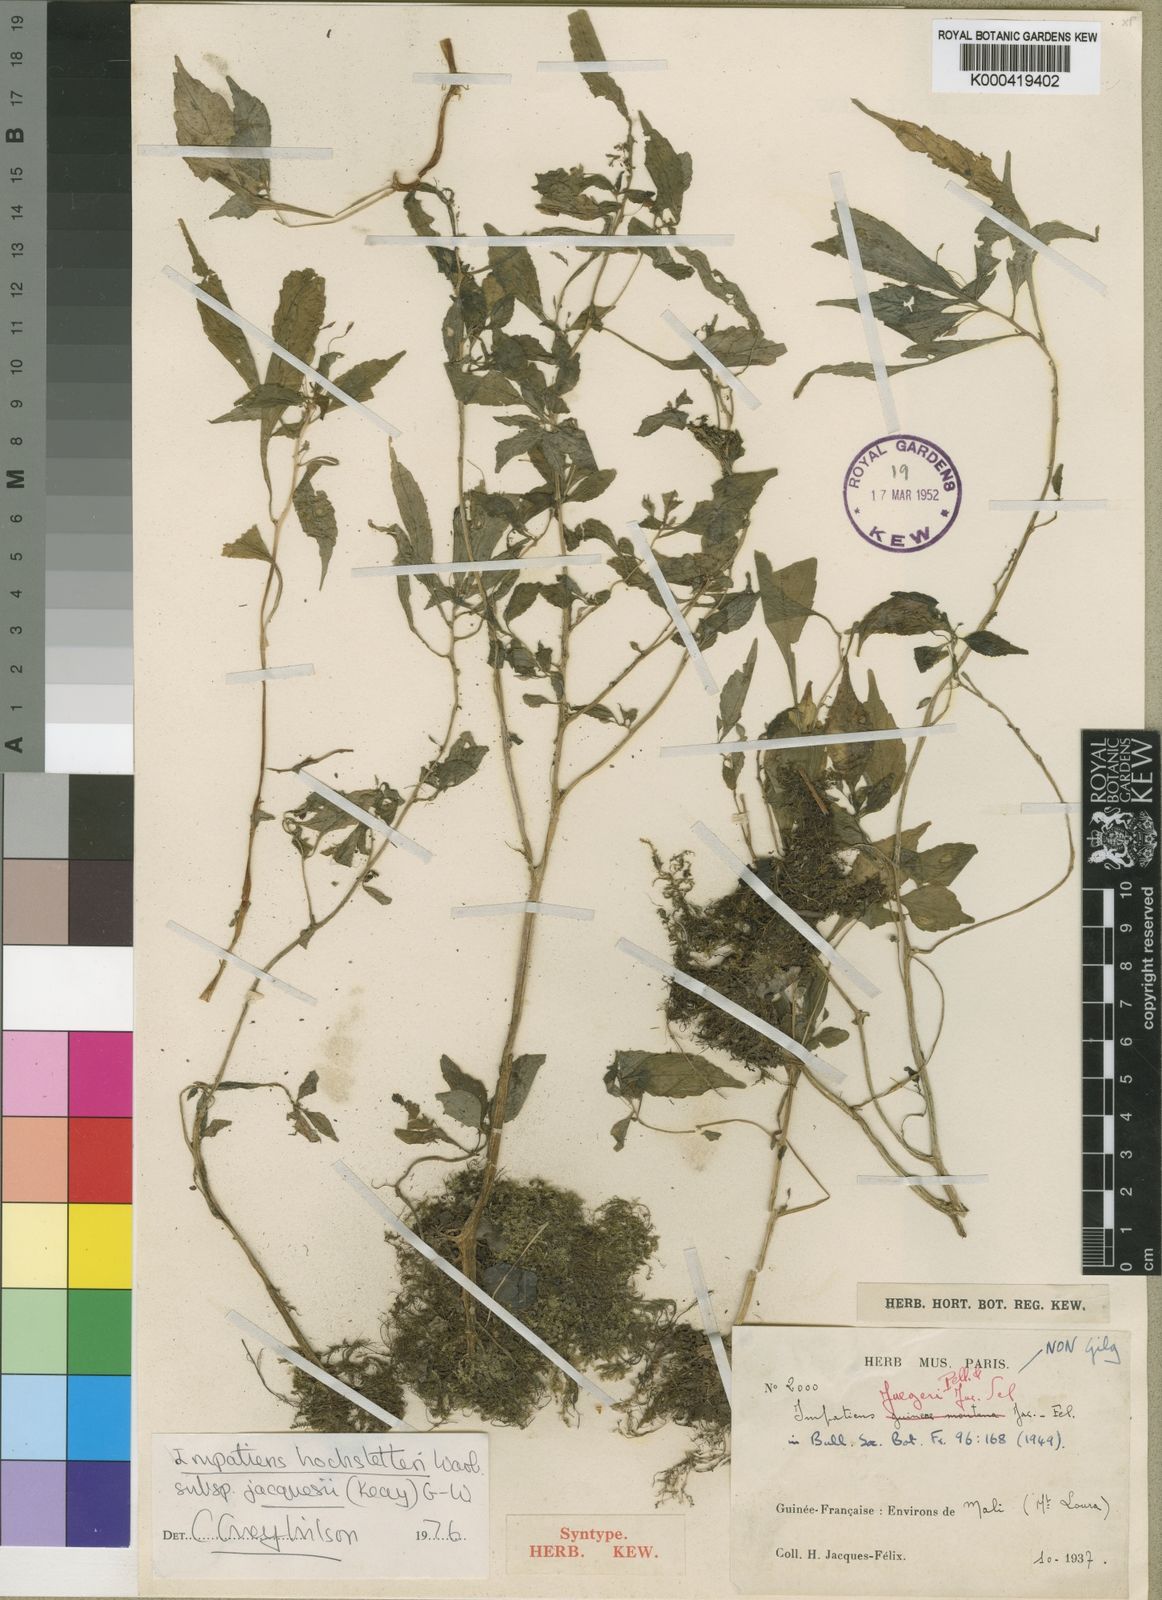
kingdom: Plantae
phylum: Tracheophyta
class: Magnoliopsida
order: Ericales
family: Balsaminaceae
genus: Impatiens
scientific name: Impatiens hochstetteri
